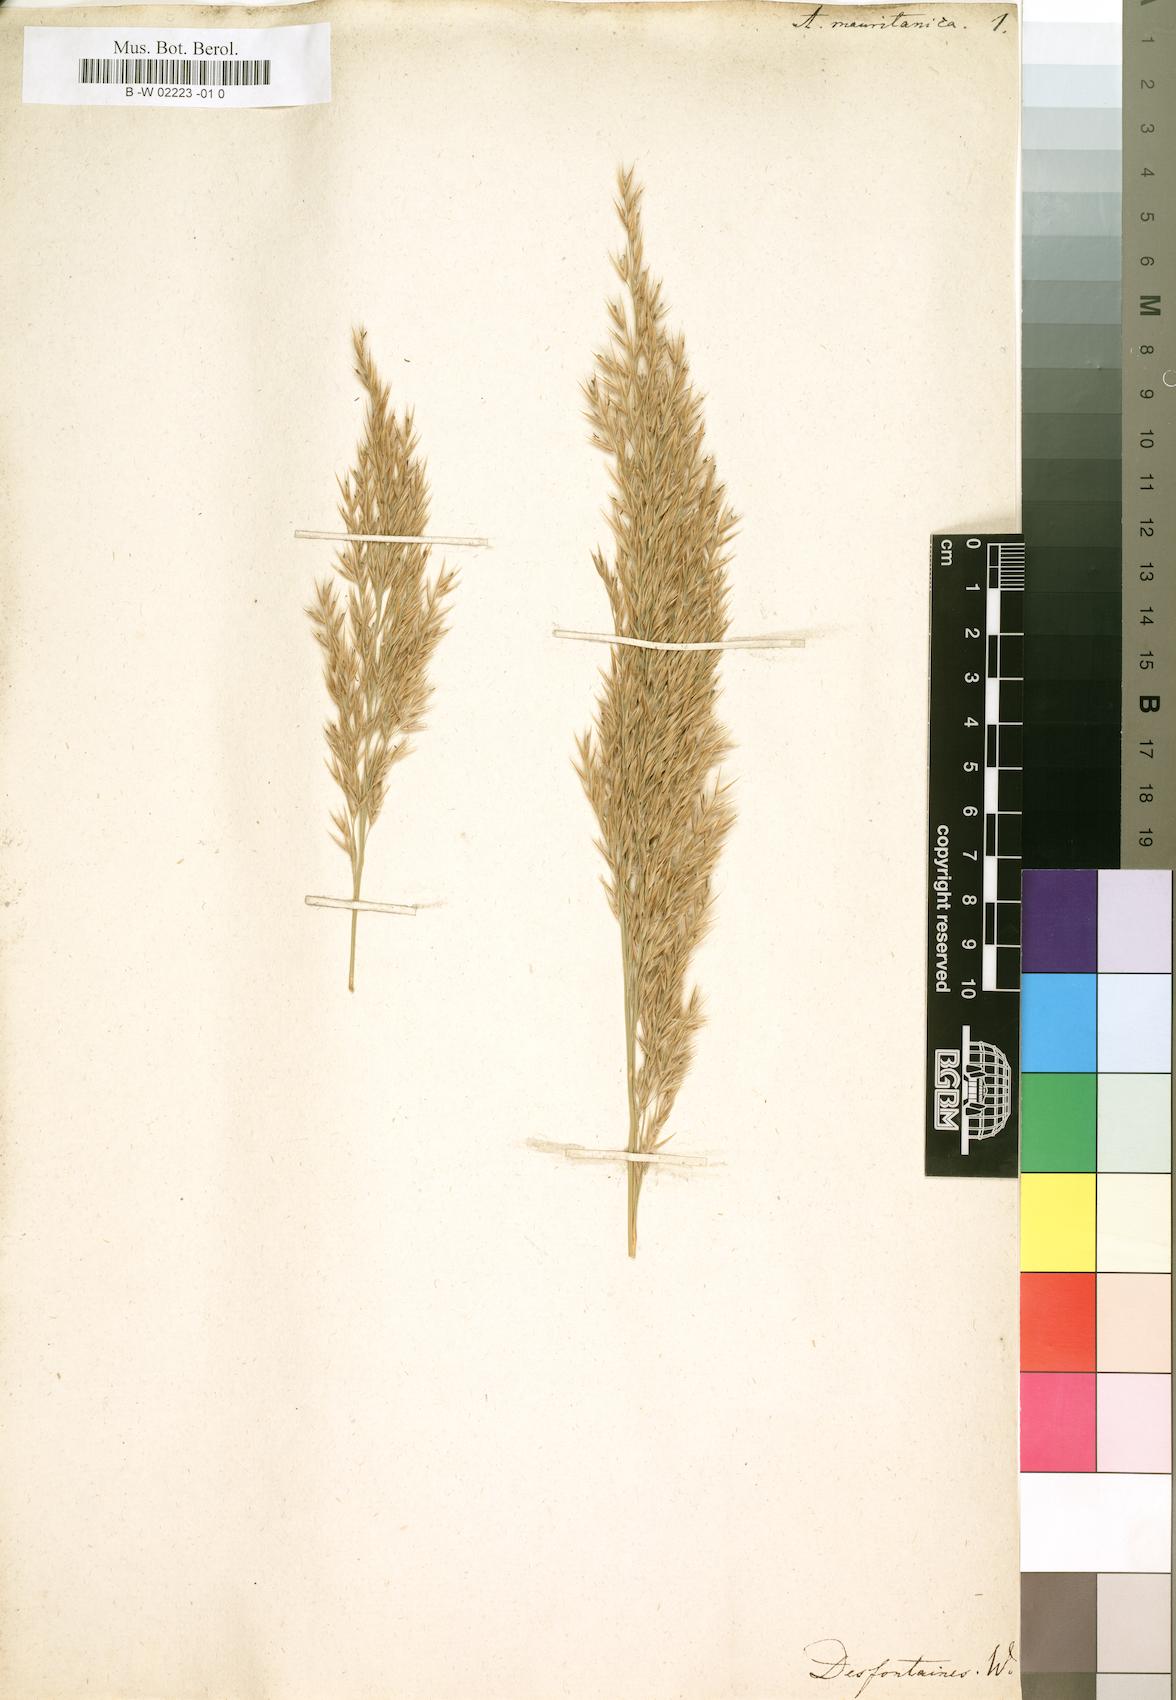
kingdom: Plantae
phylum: Tracheophyta
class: Liliopsida
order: Poales
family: Poaceae
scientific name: Poaceae
